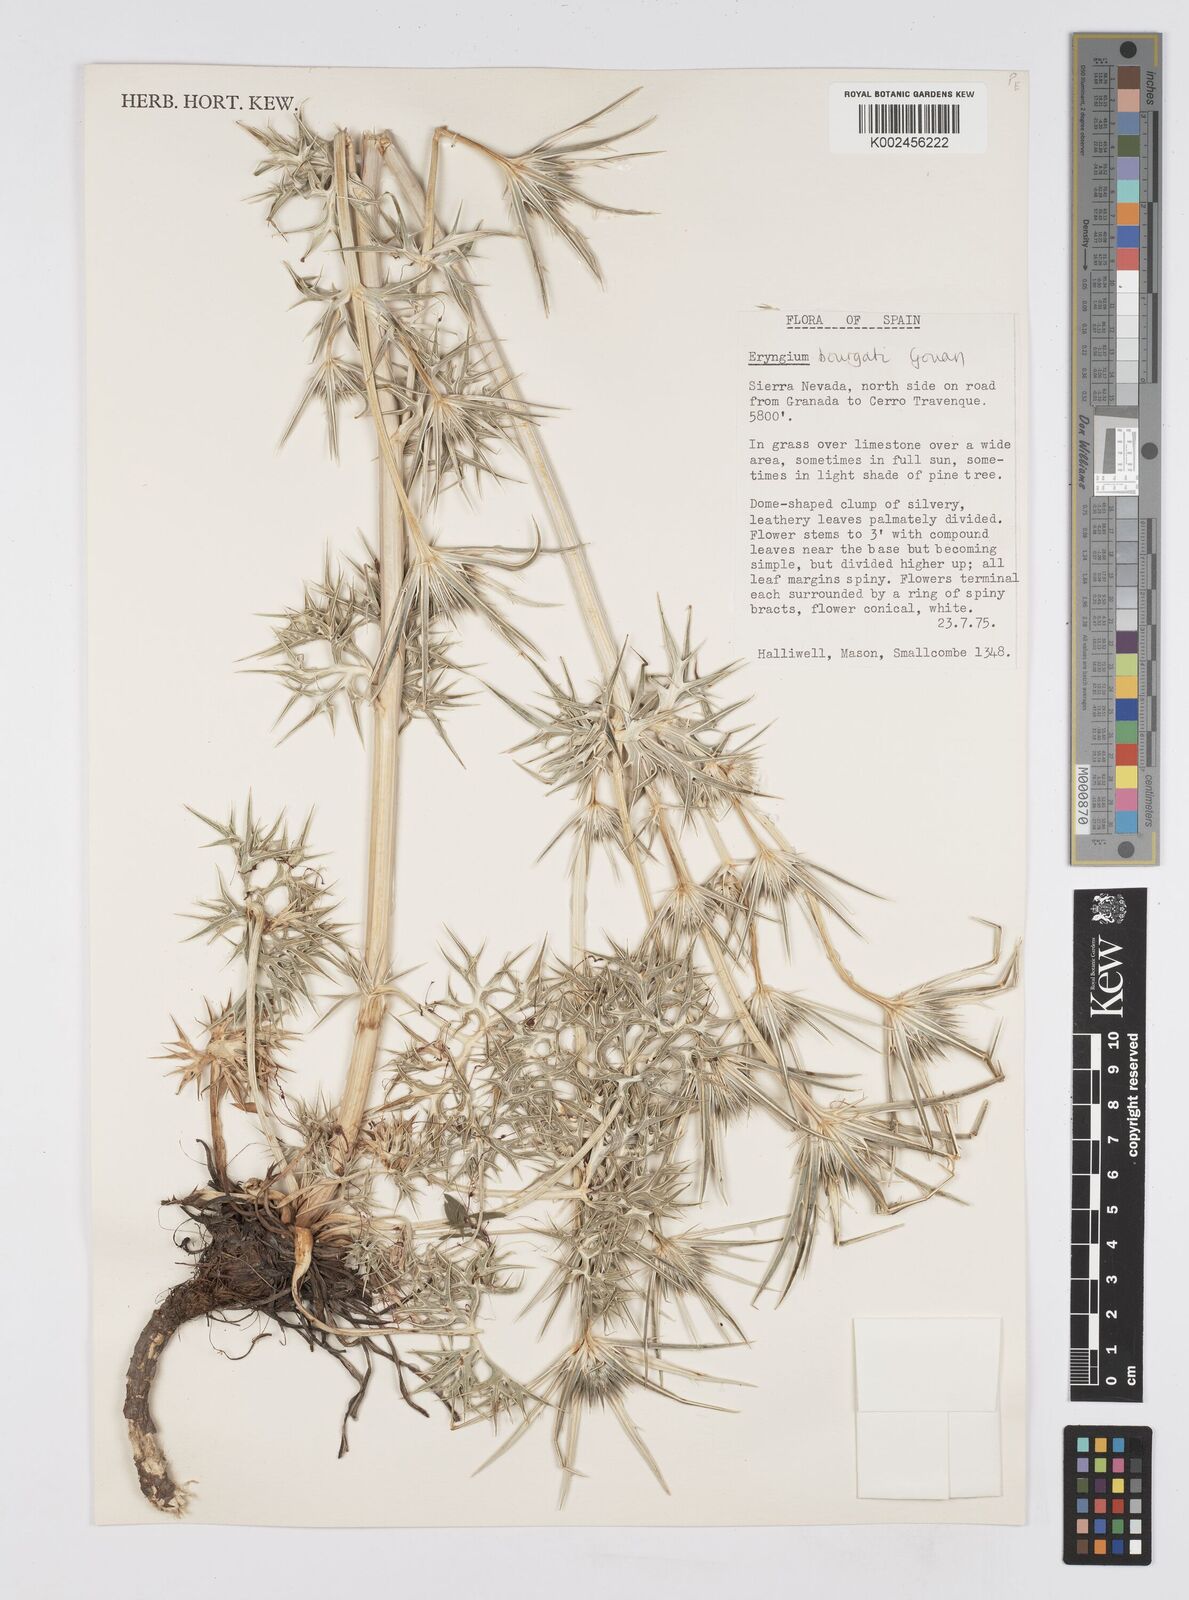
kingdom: Plantae
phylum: Tracheophyta
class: Magnoliopsida
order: Apiales
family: Apiaceae
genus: Eryngium
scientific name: Eryngium bourgatii
